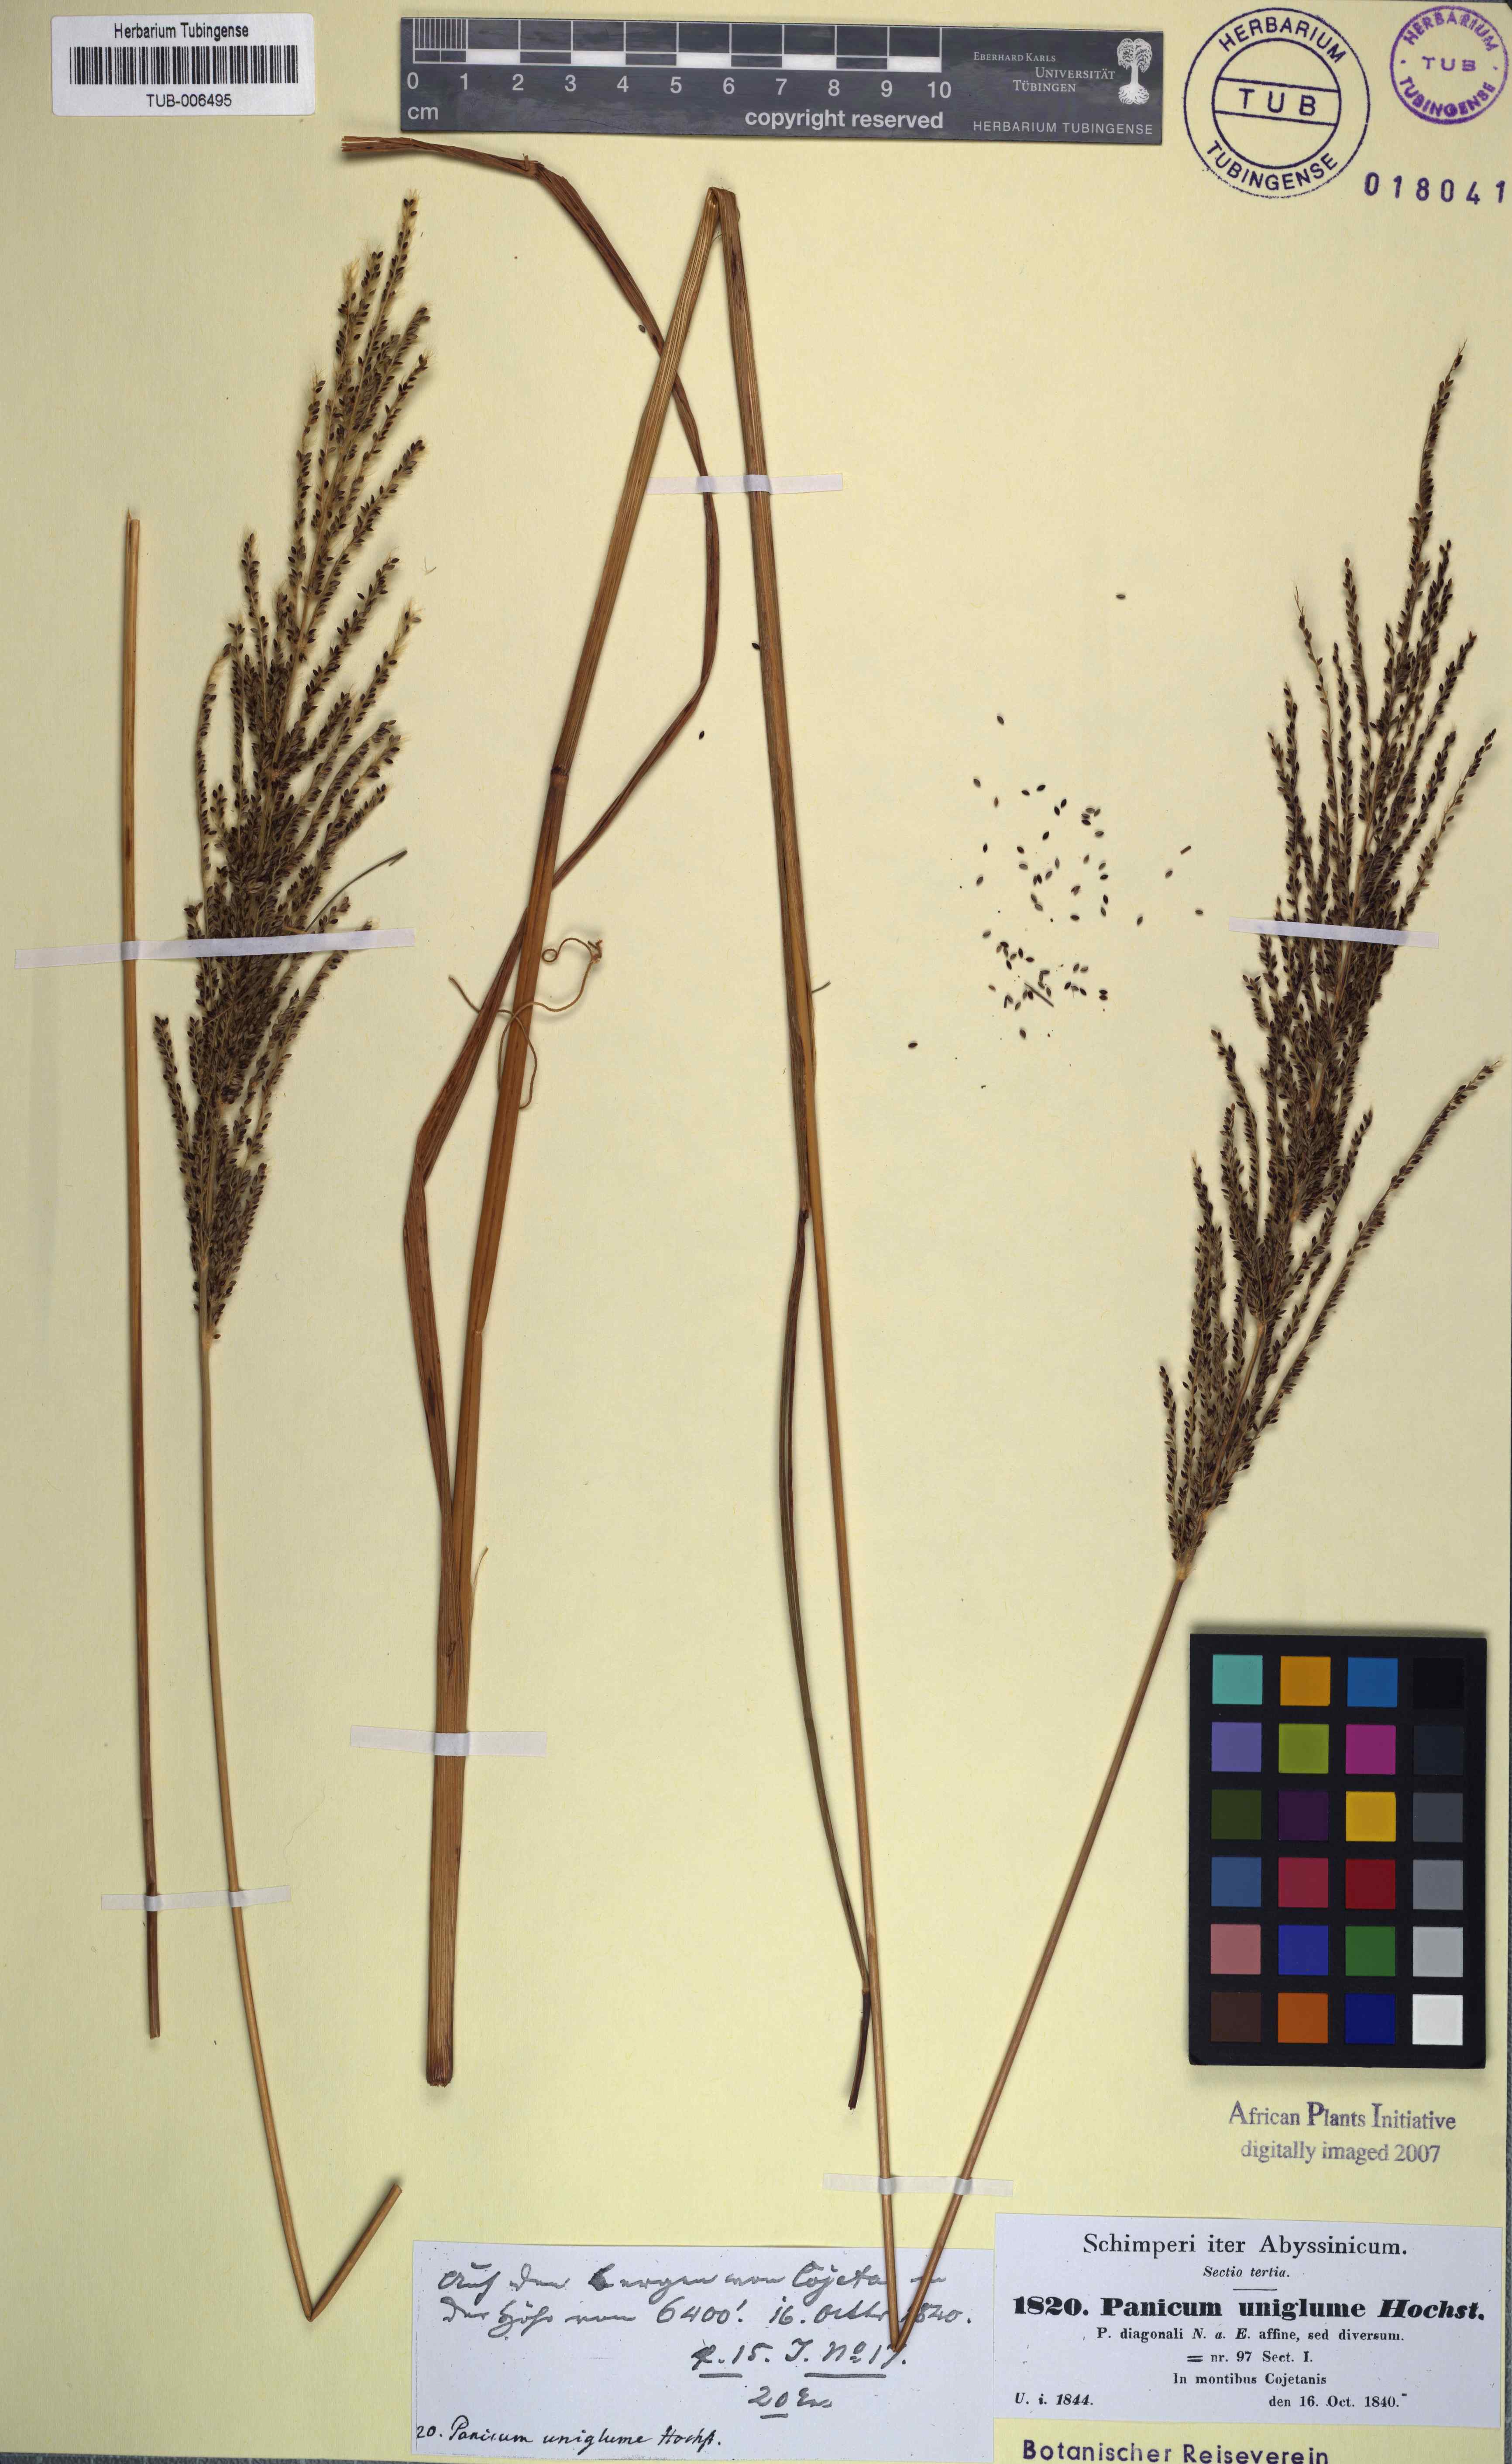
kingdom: Plantae
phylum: Tracheophyta
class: Liliopsida
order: Poales
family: Poaceae
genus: Digitaria
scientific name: Digitaria diagonalis
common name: Brown-seed finger grass
